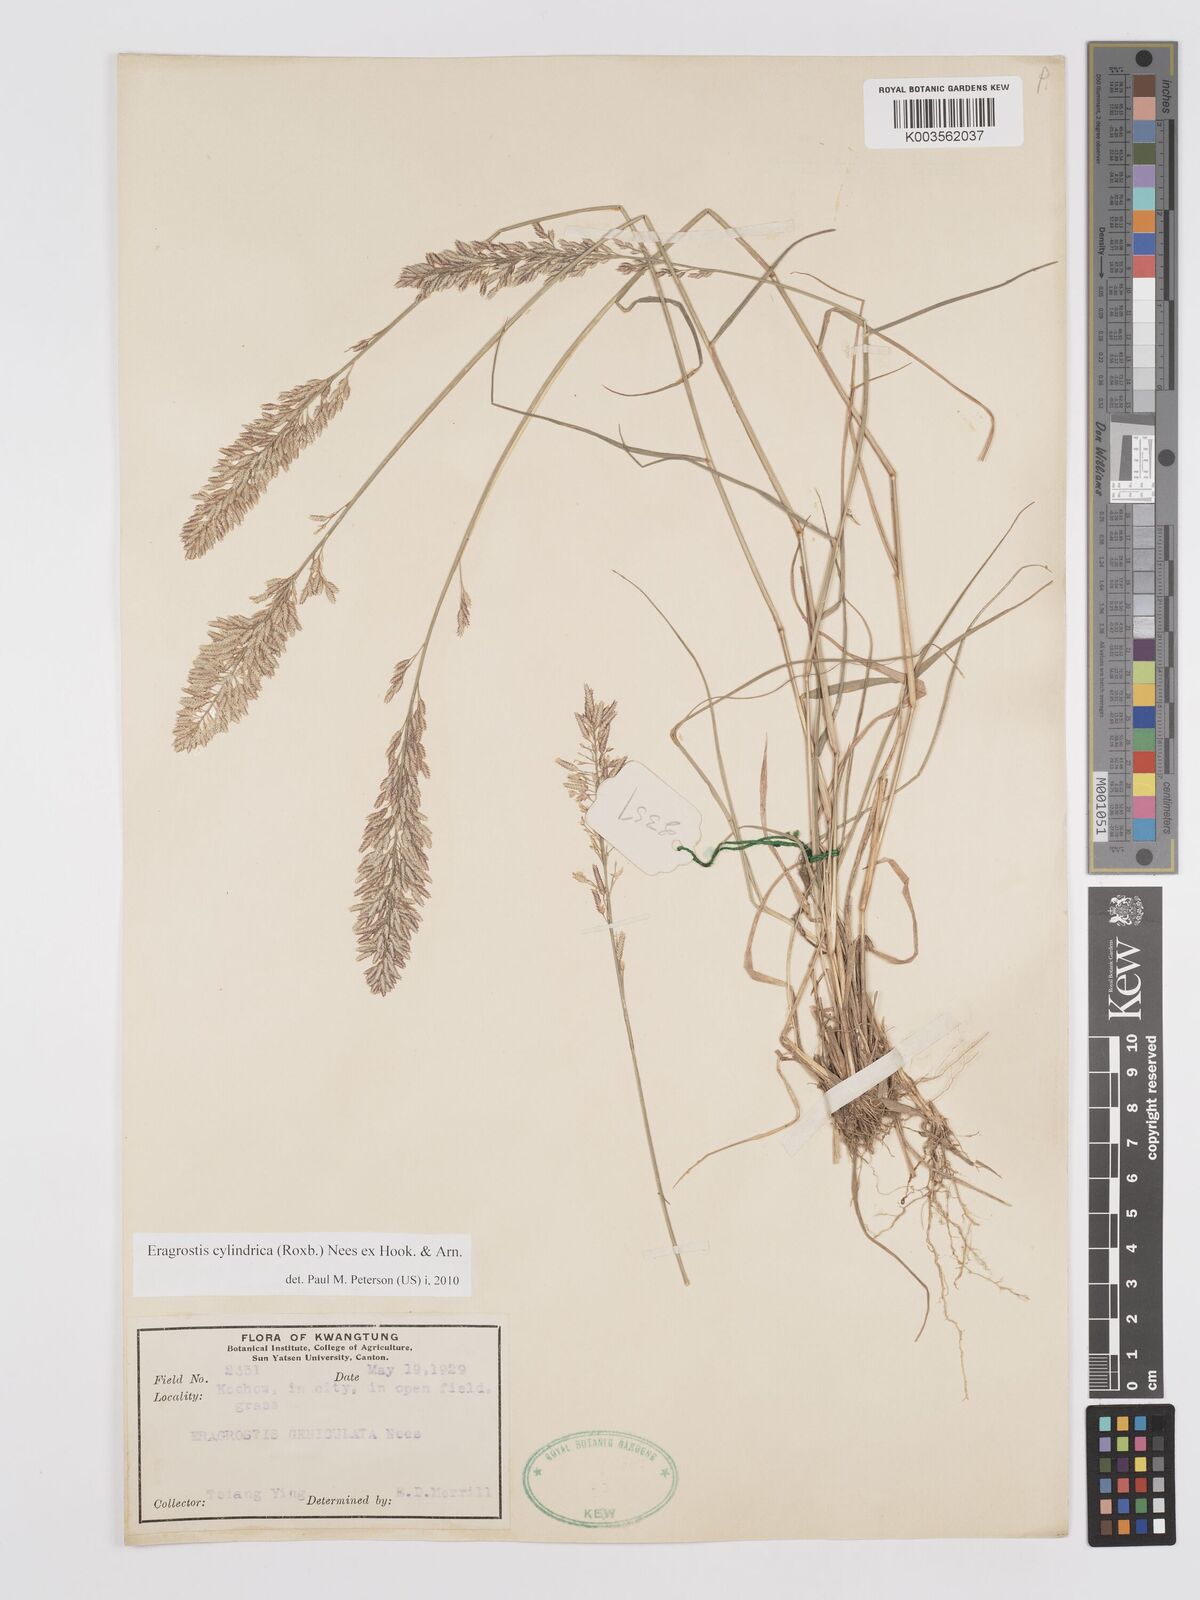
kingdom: Plantae
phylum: Tracheophyta
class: Liliopsida
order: Poales
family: Poaceae
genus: Eragrostis
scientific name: Eragrostis cylindrica
